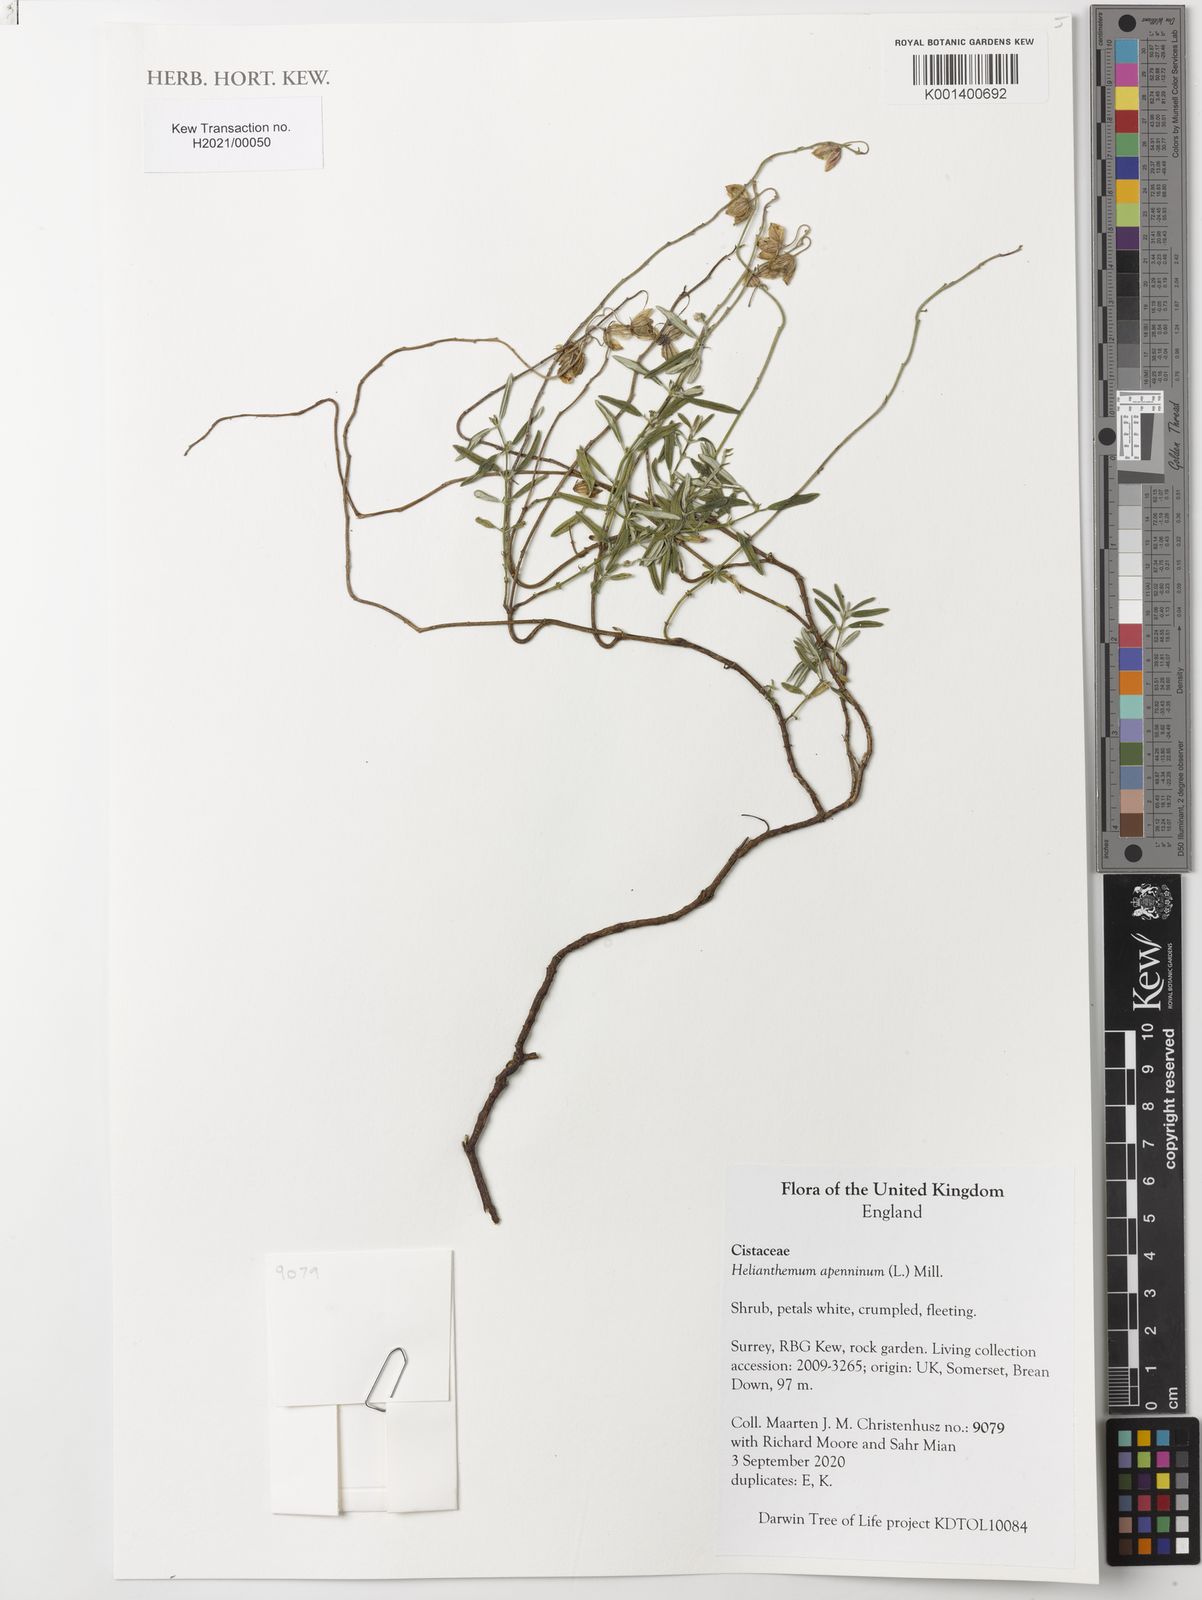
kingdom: Plantae
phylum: Tracheophyta
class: Magnoliopsida
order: Malvales
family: Cistaceae
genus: Helianthemum
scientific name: Helianthemum apenninum
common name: White rock-rose
